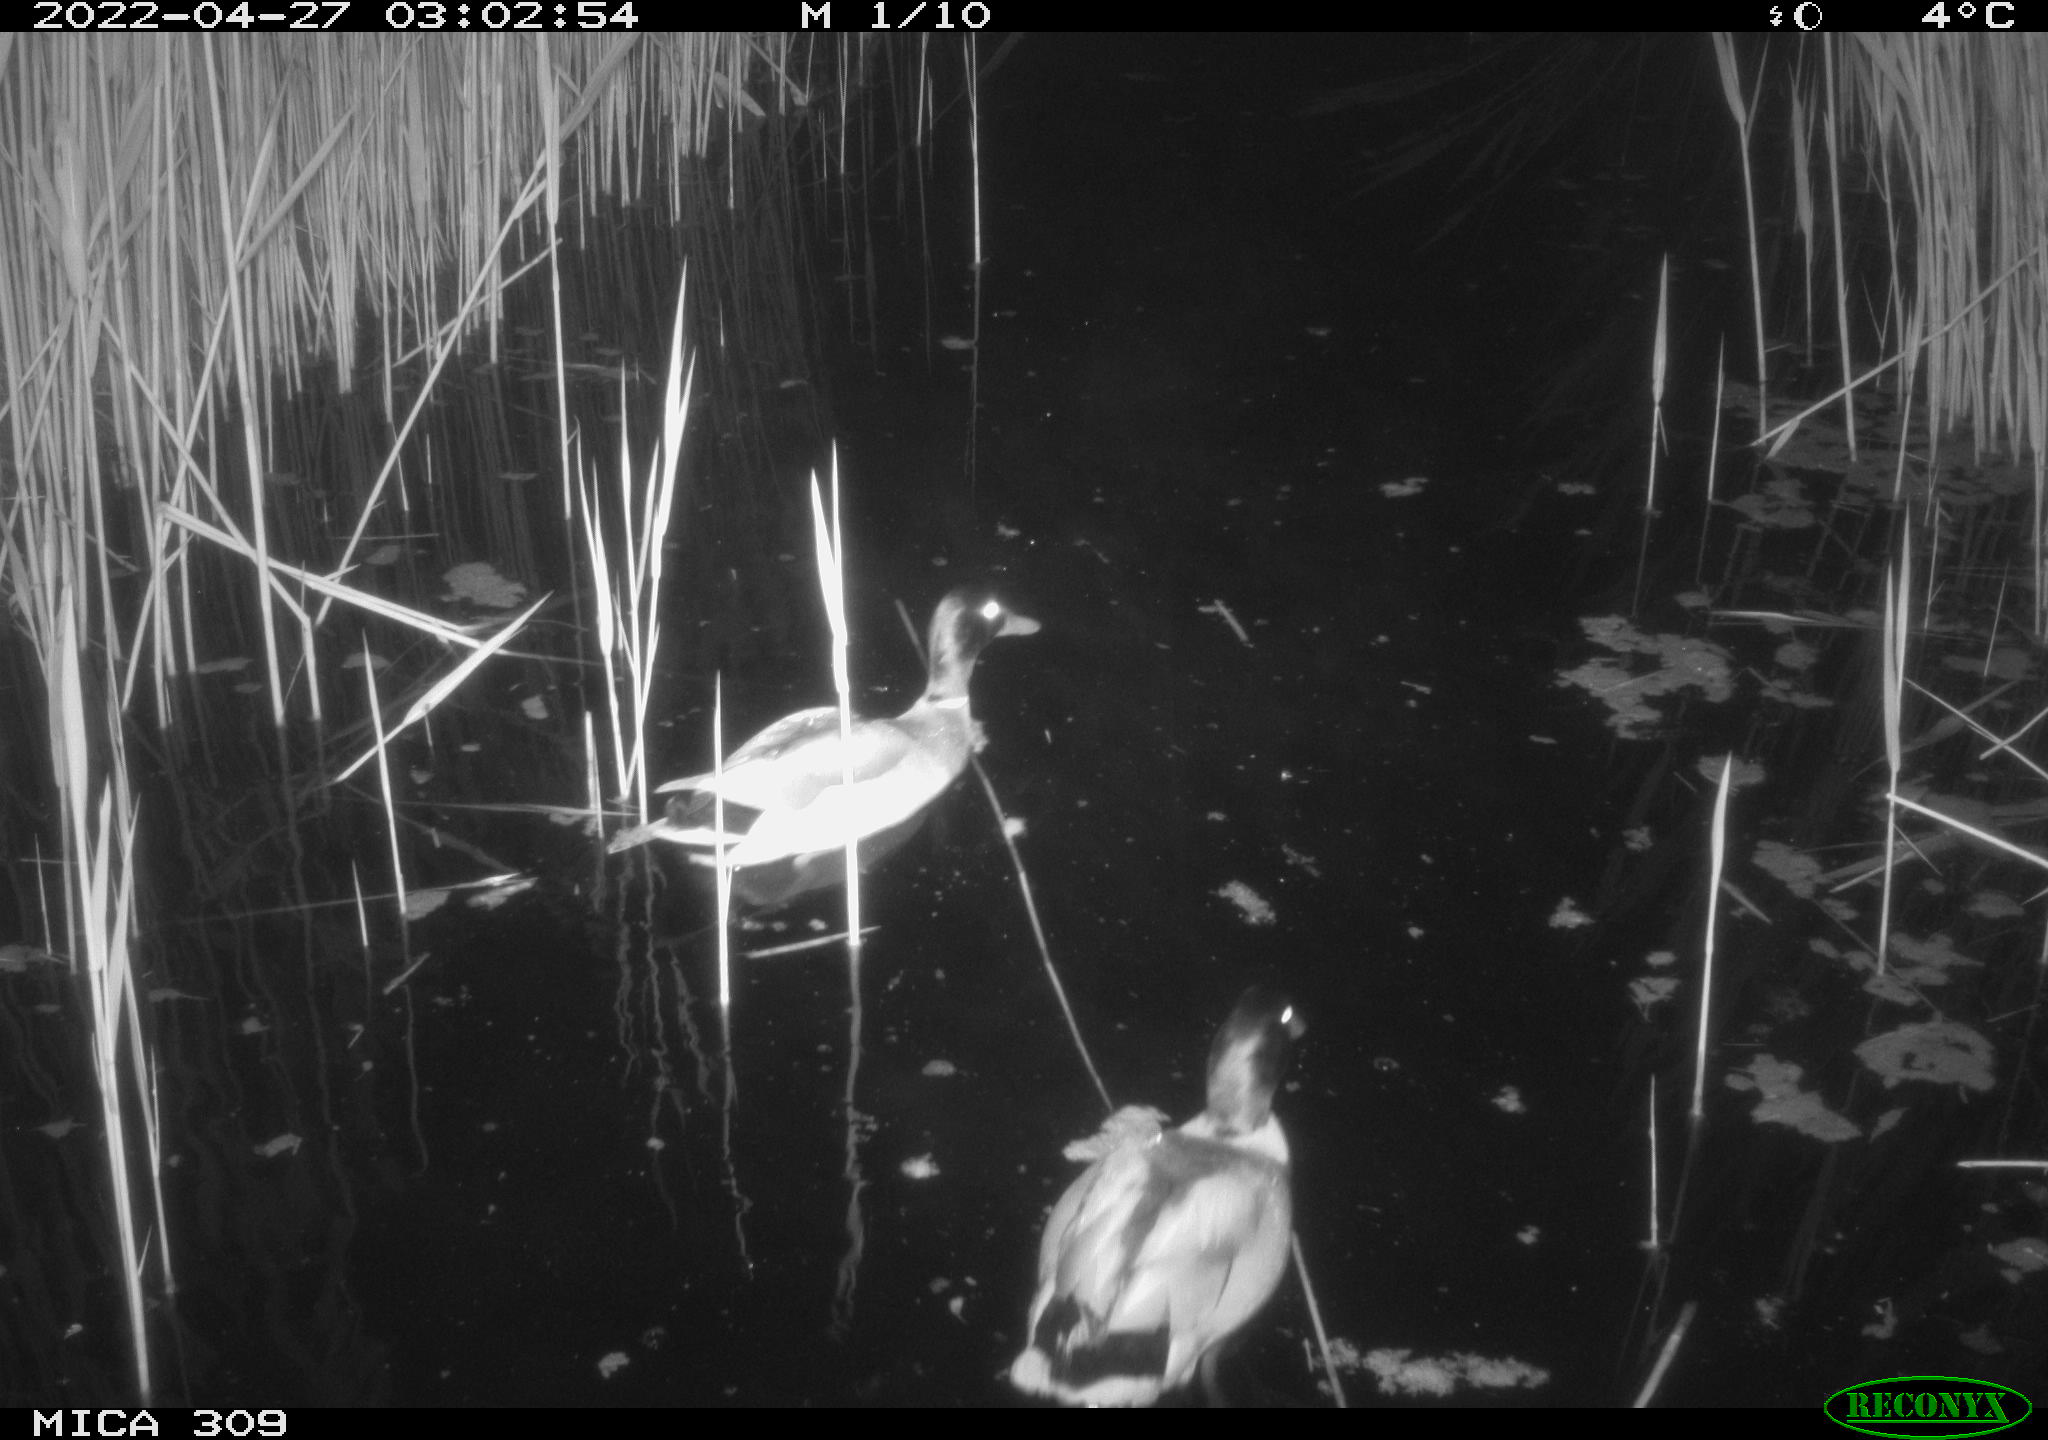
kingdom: Animalia
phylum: Chordata
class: Aves
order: Anseriformes
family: Anatidae
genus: Anas
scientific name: Anas platyrhynchos
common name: Mallard
